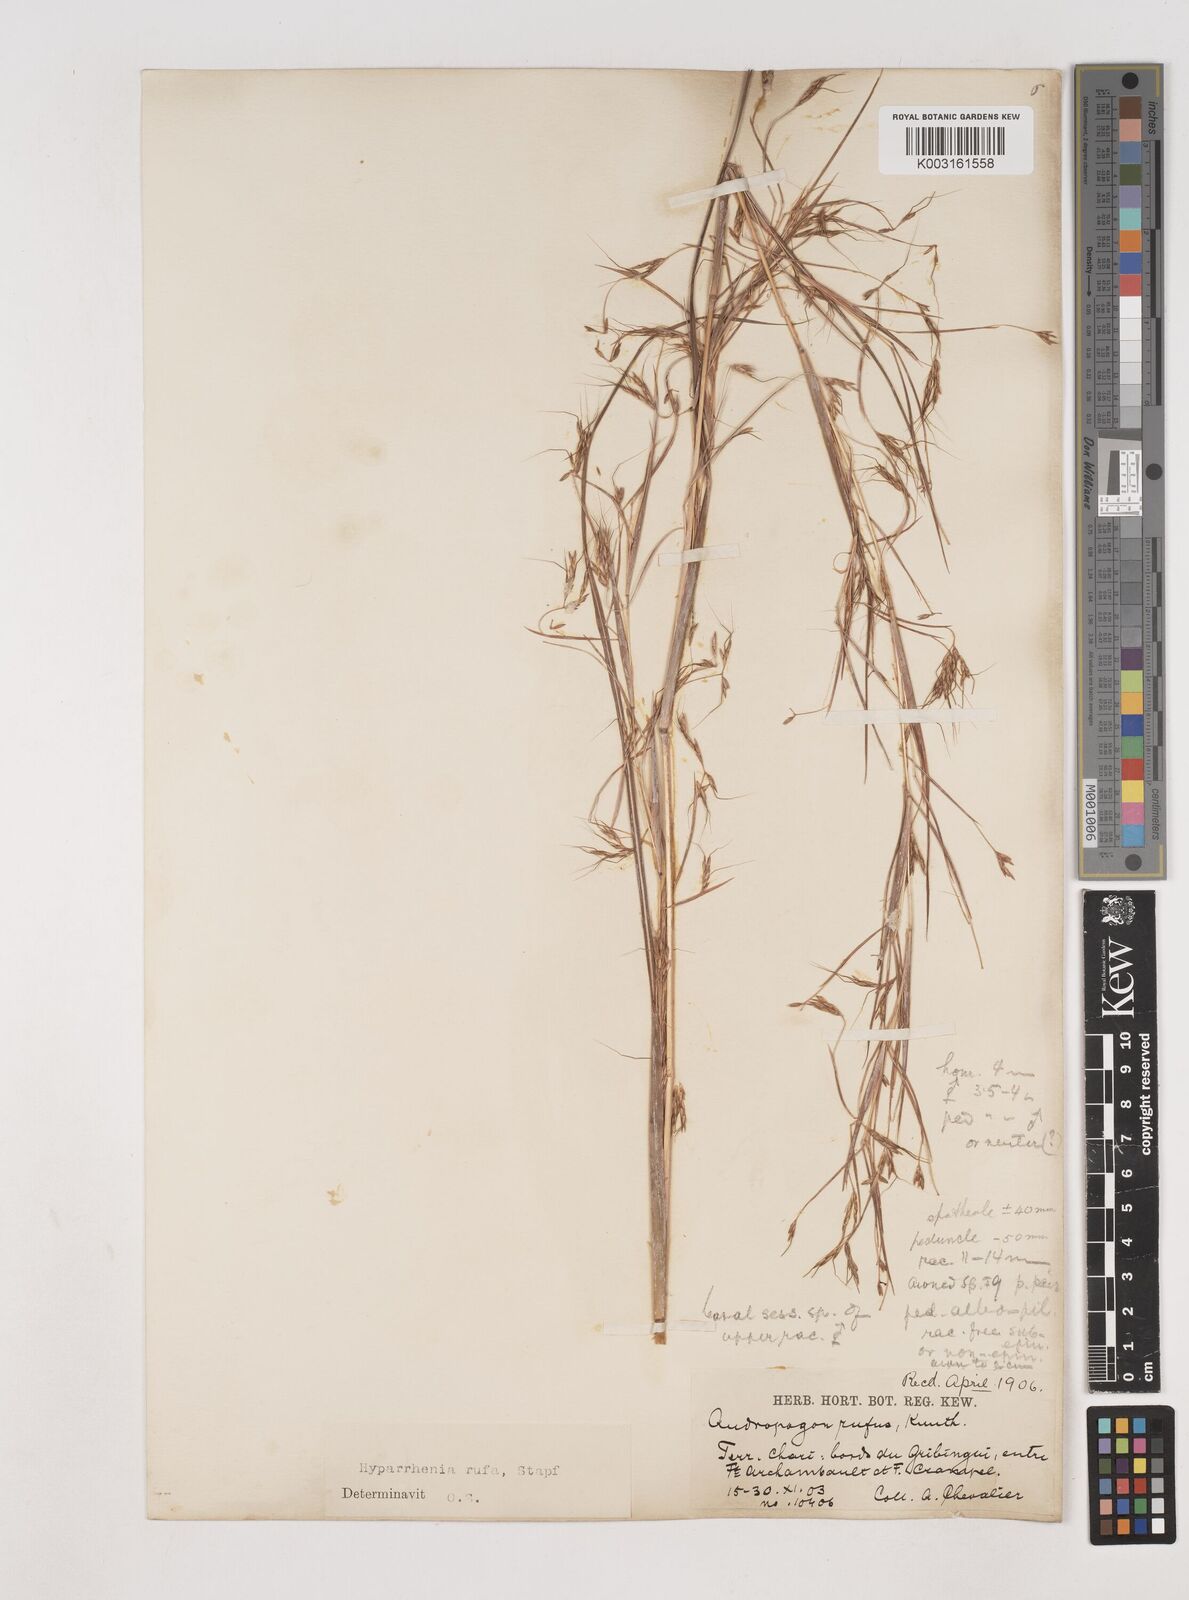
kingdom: Plantae
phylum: Tracheophyta
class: Liliopsida
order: Poales
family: Poaceae
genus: Hyparrhenia
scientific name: Hyparrhenia rufa
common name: Jaraguagrass
